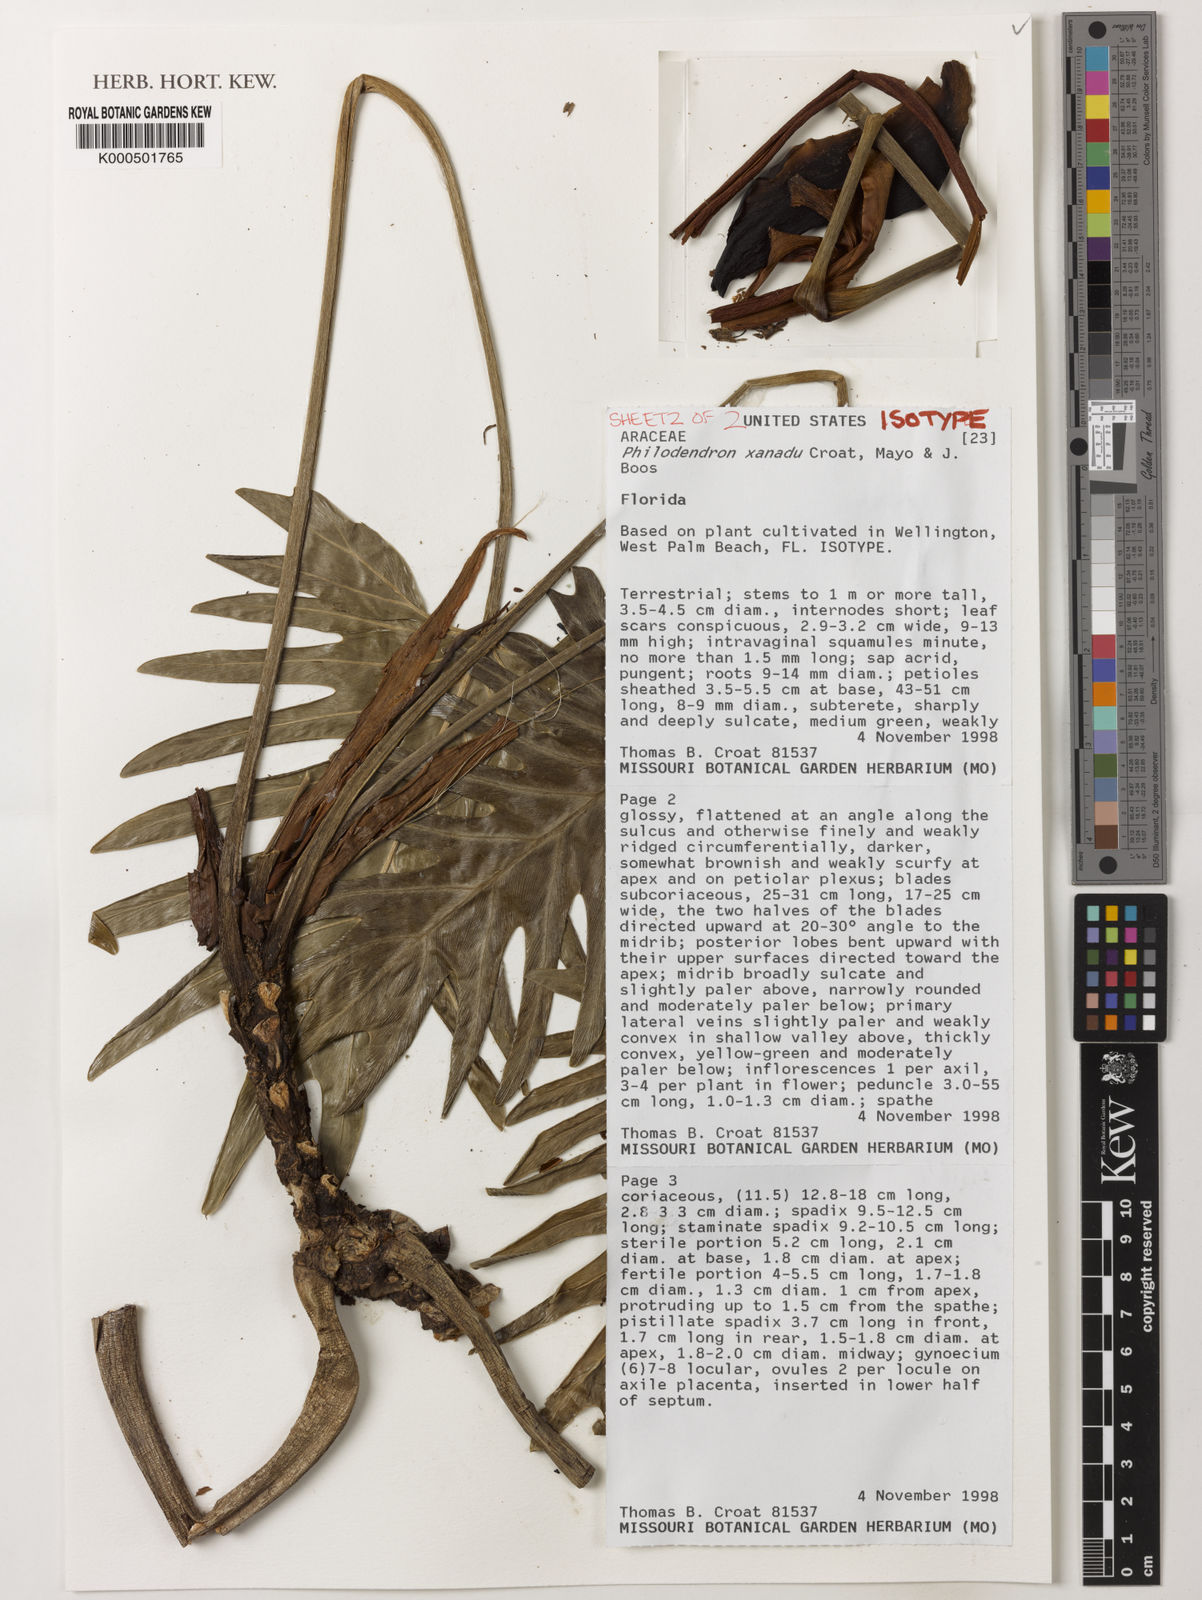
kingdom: Plantae
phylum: Tracheophyta
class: Liliopsida
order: Alismatales
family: Araceae
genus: Thaumatophyllum
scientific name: Thaumatophyllum xanadu
